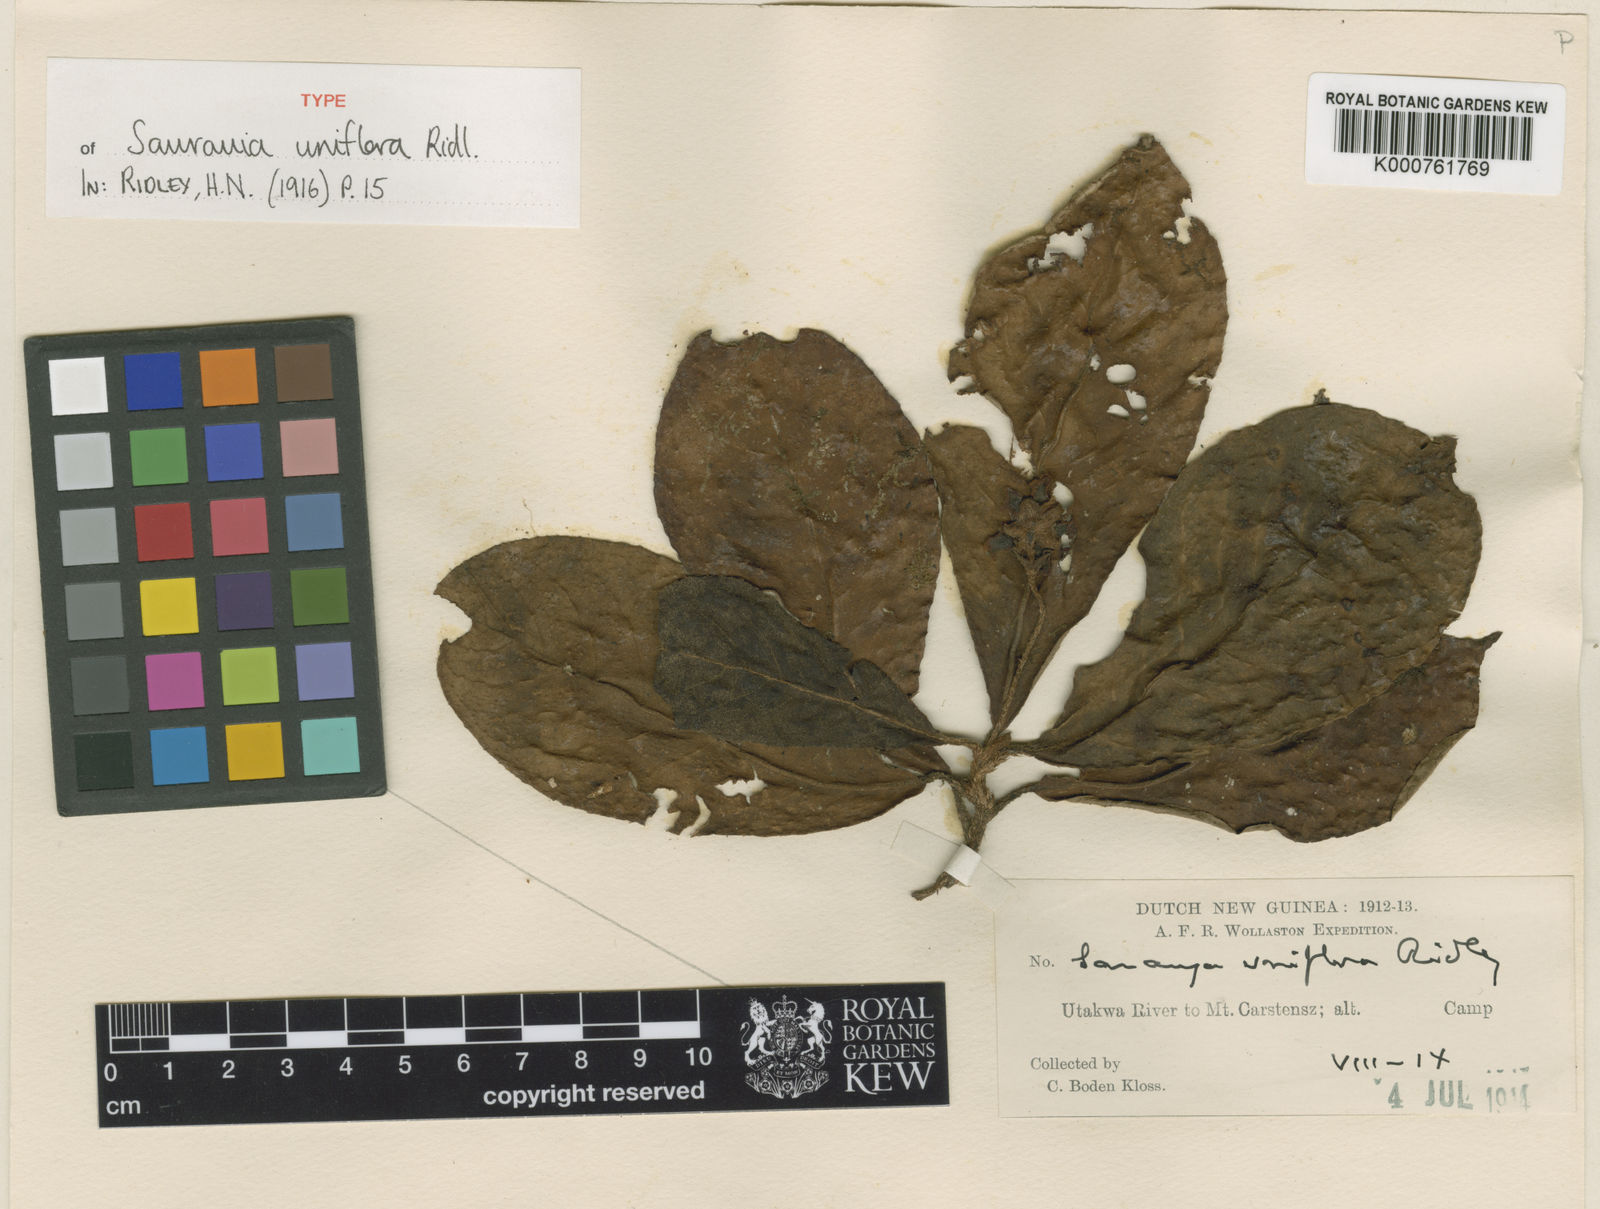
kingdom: Plantae
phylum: Tracheophyta
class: Magnoliopsida
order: Ericales
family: Actinidiaceae
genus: Saurauia
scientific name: Saurauia uniflora
